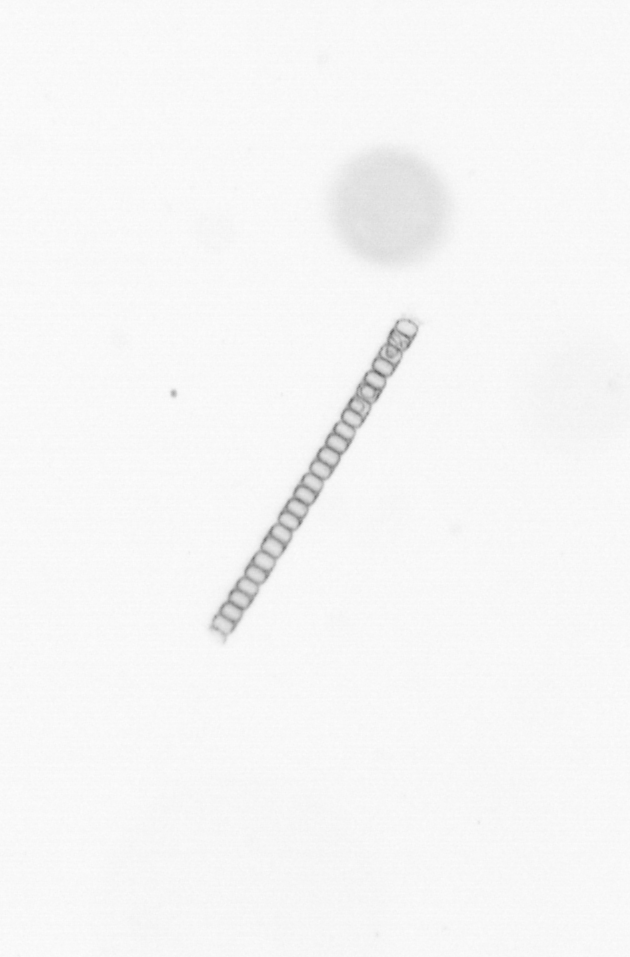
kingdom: Chromista
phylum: Ochrophyta
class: Bacillariophyceae
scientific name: Bacillariophyceae
